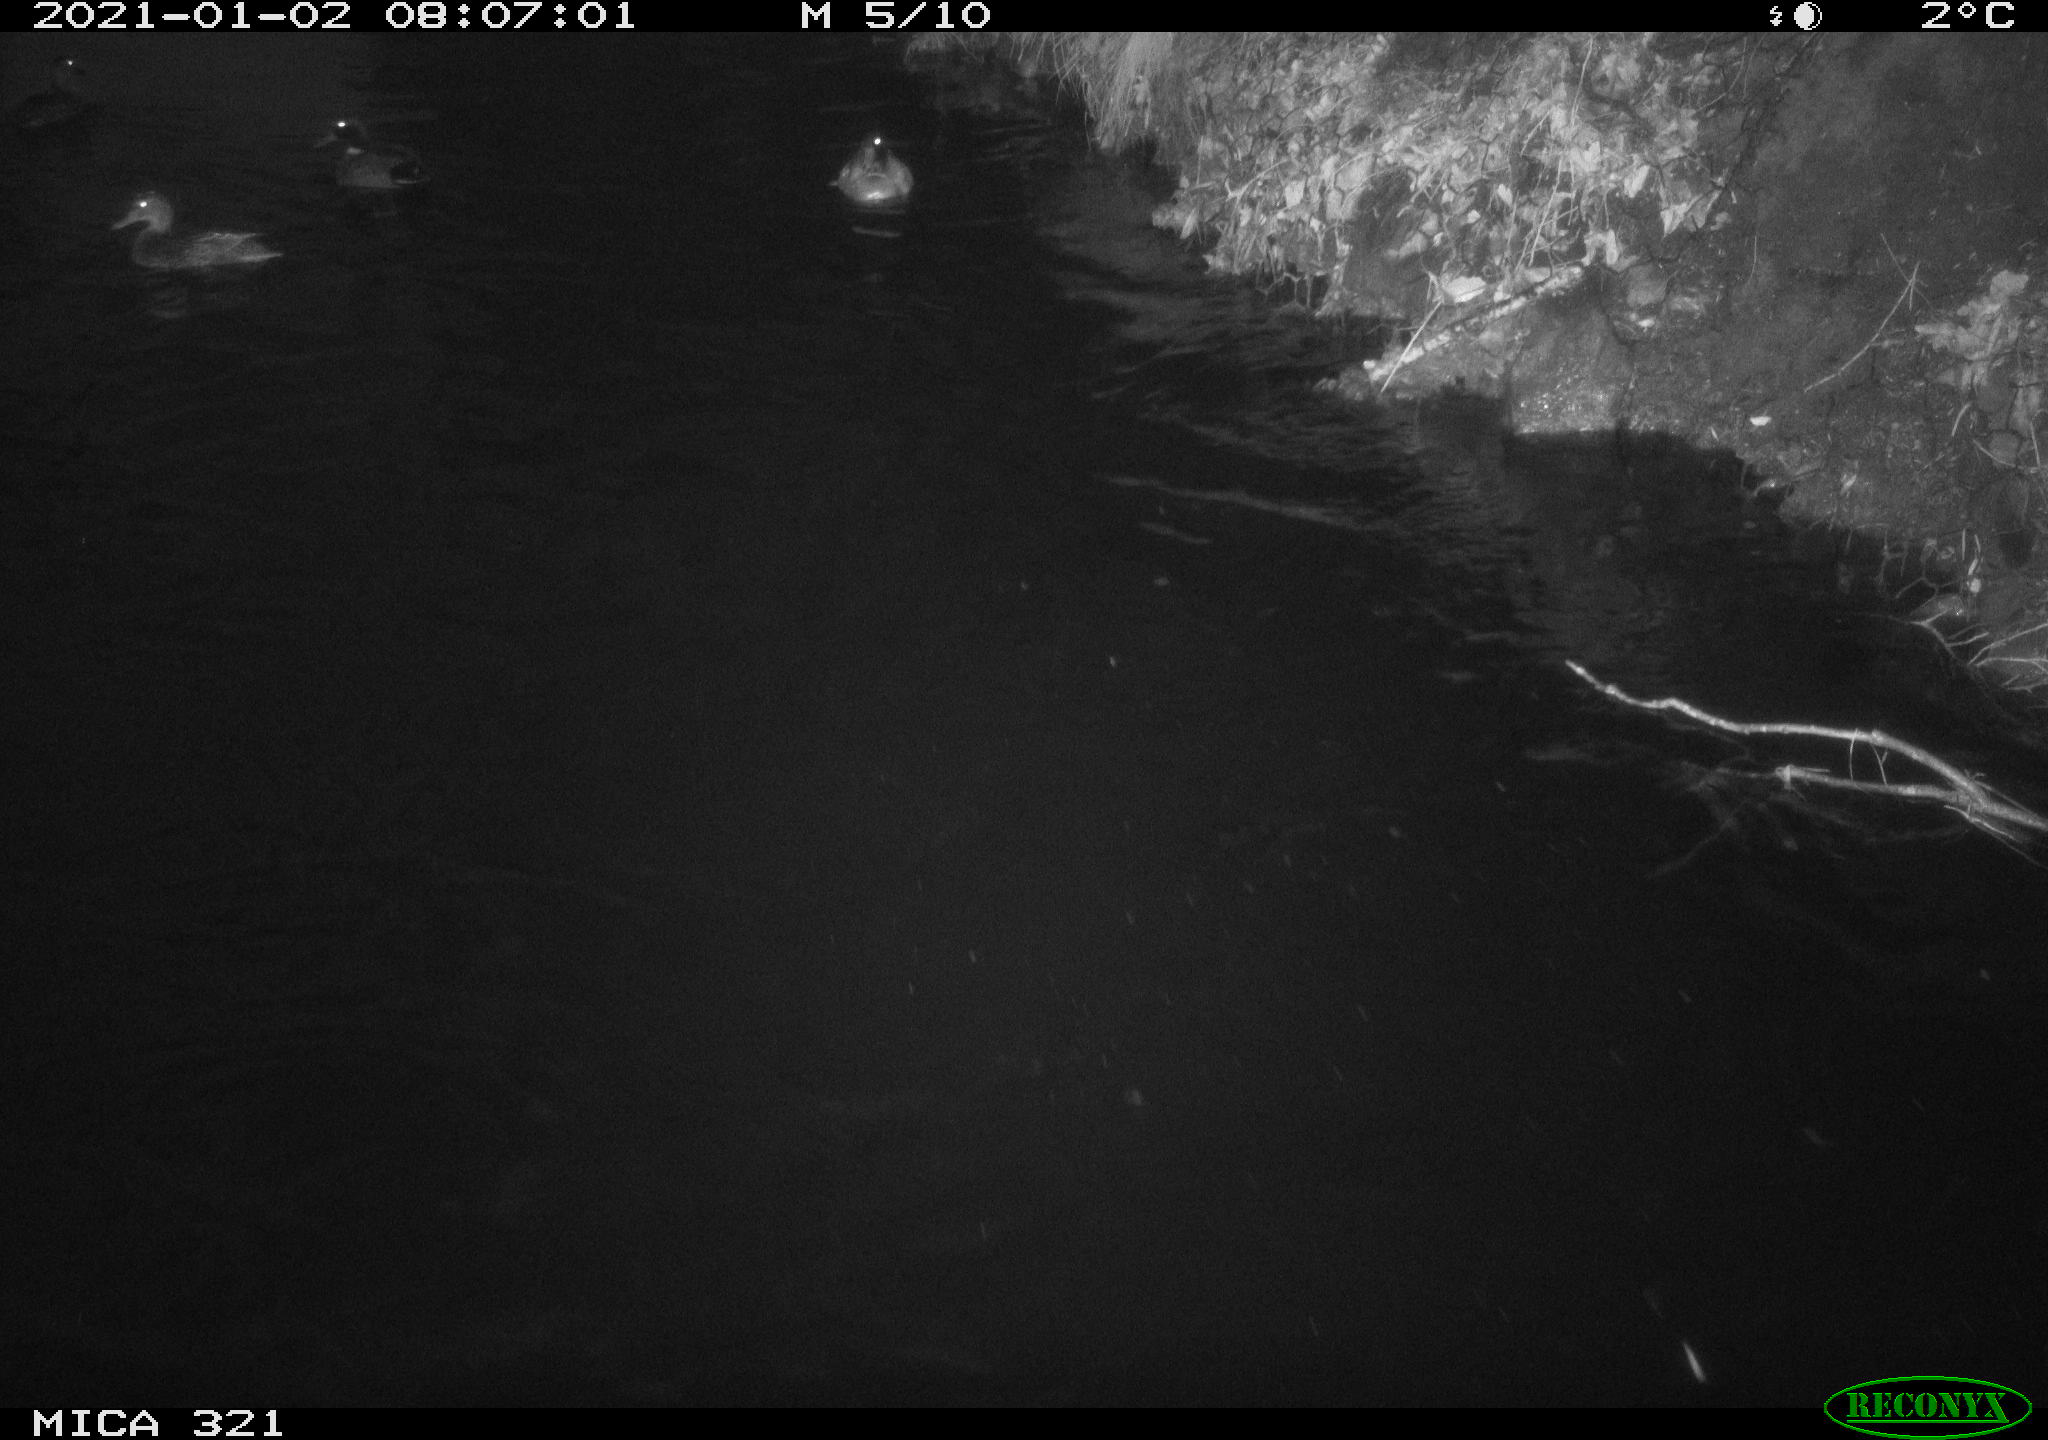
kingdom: Animalia
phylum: Chordata
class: Aves
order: Anseriformes
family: Anatidae
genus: Anas
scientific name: Anas platyrhynchos
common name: Mallard
